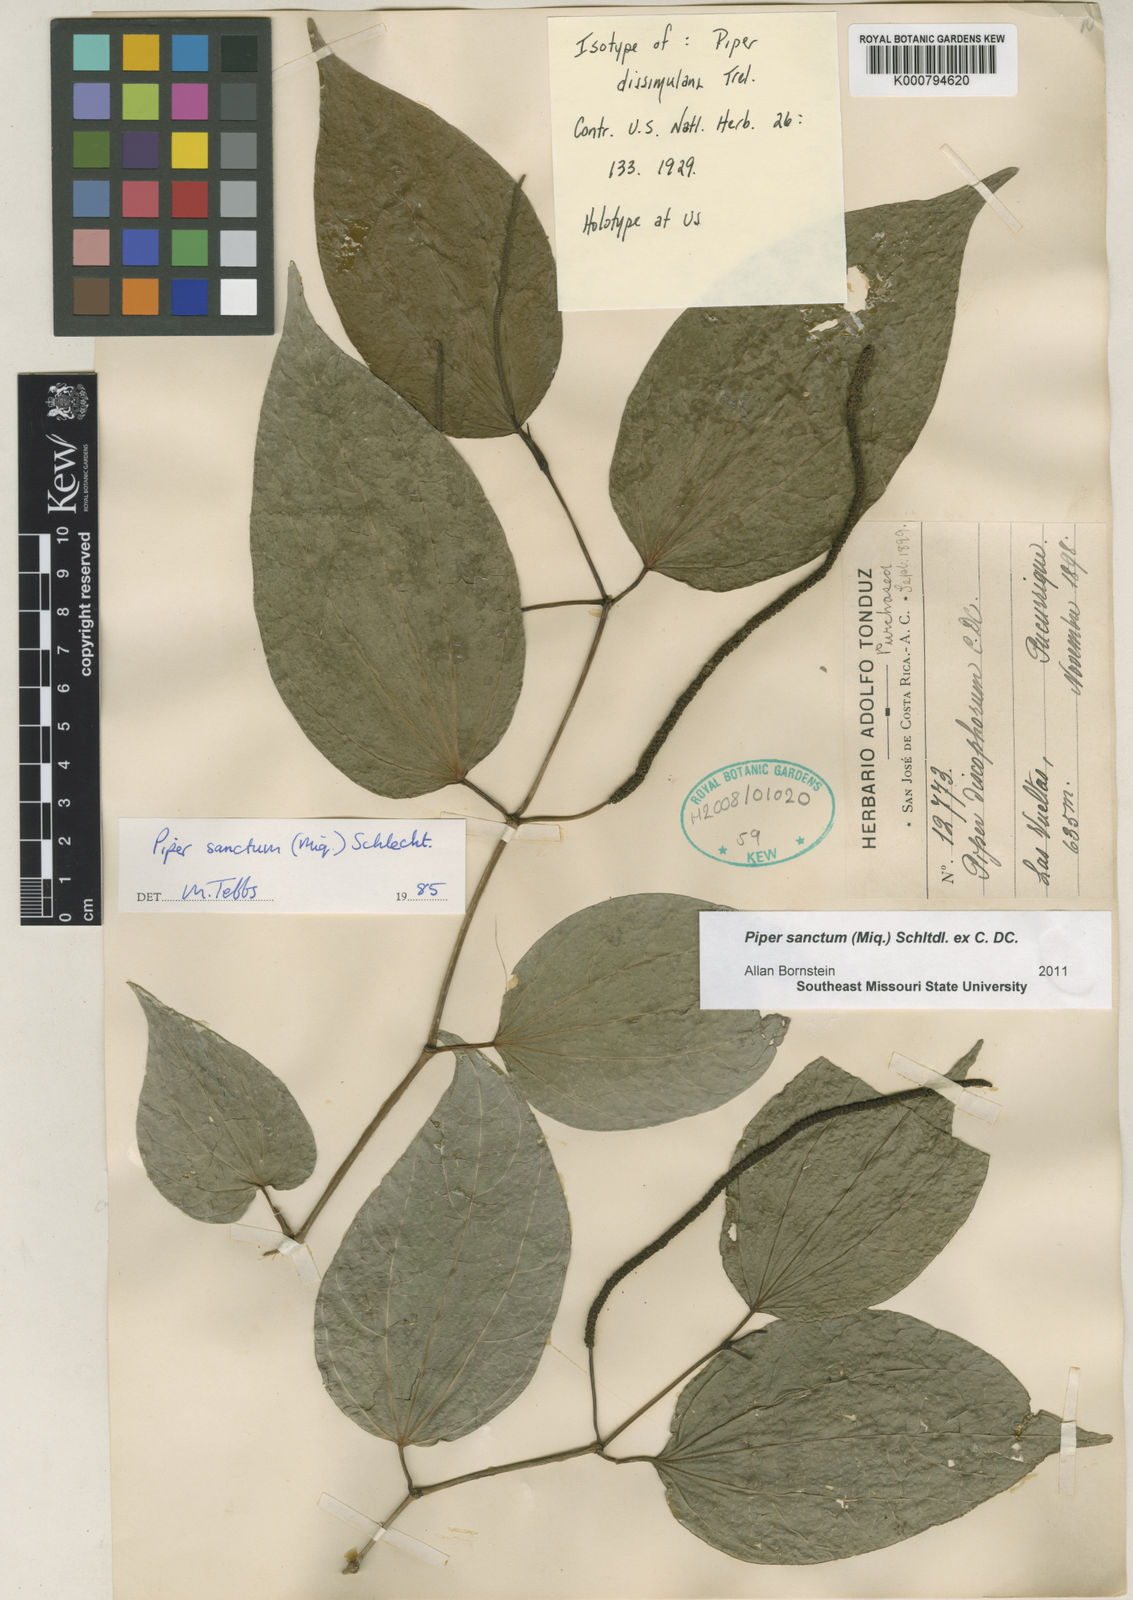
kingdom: Plantae
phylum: Tracheophyta
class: Magnoliopsida
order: Piperales
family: Piperaceae
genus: Piper
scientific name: Piper auritum
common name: Vera cruz pepper
